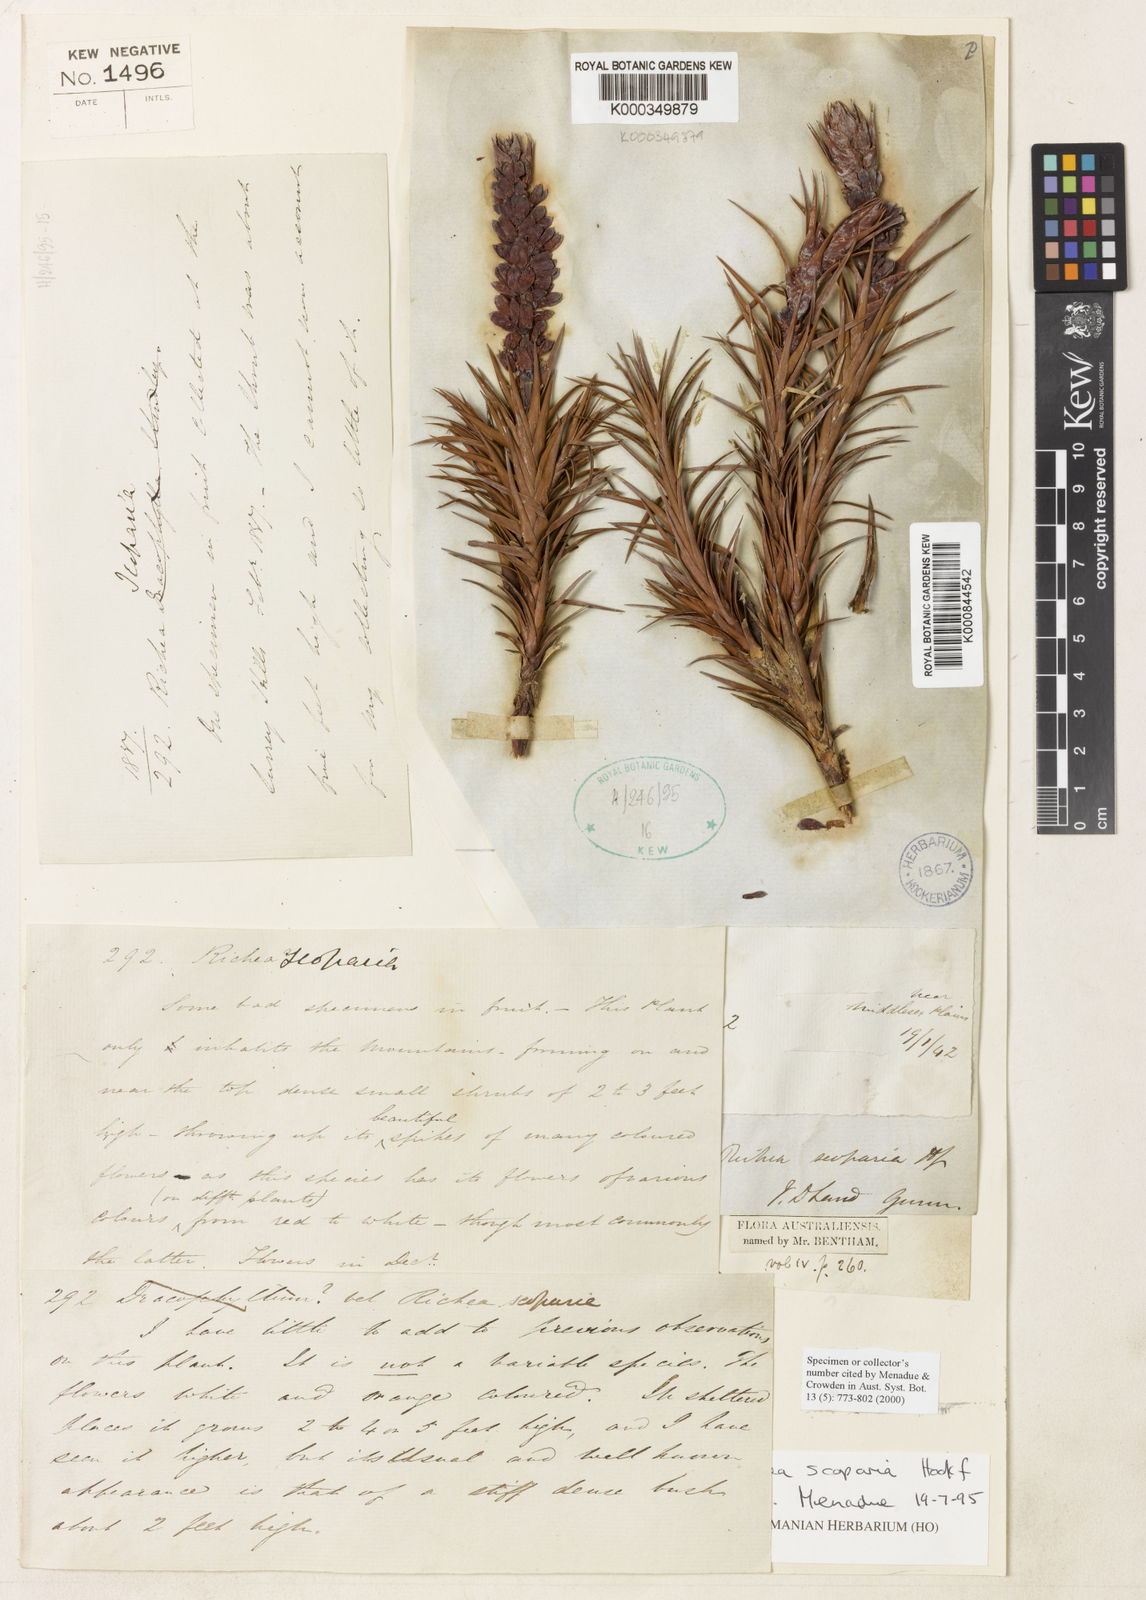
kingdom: Plantae
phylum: Tracheophyta
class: Magnoliopsida
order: Ericales
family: Ericaceae
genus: Dracophyllum
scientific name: Dracophyllum persistentifolium
